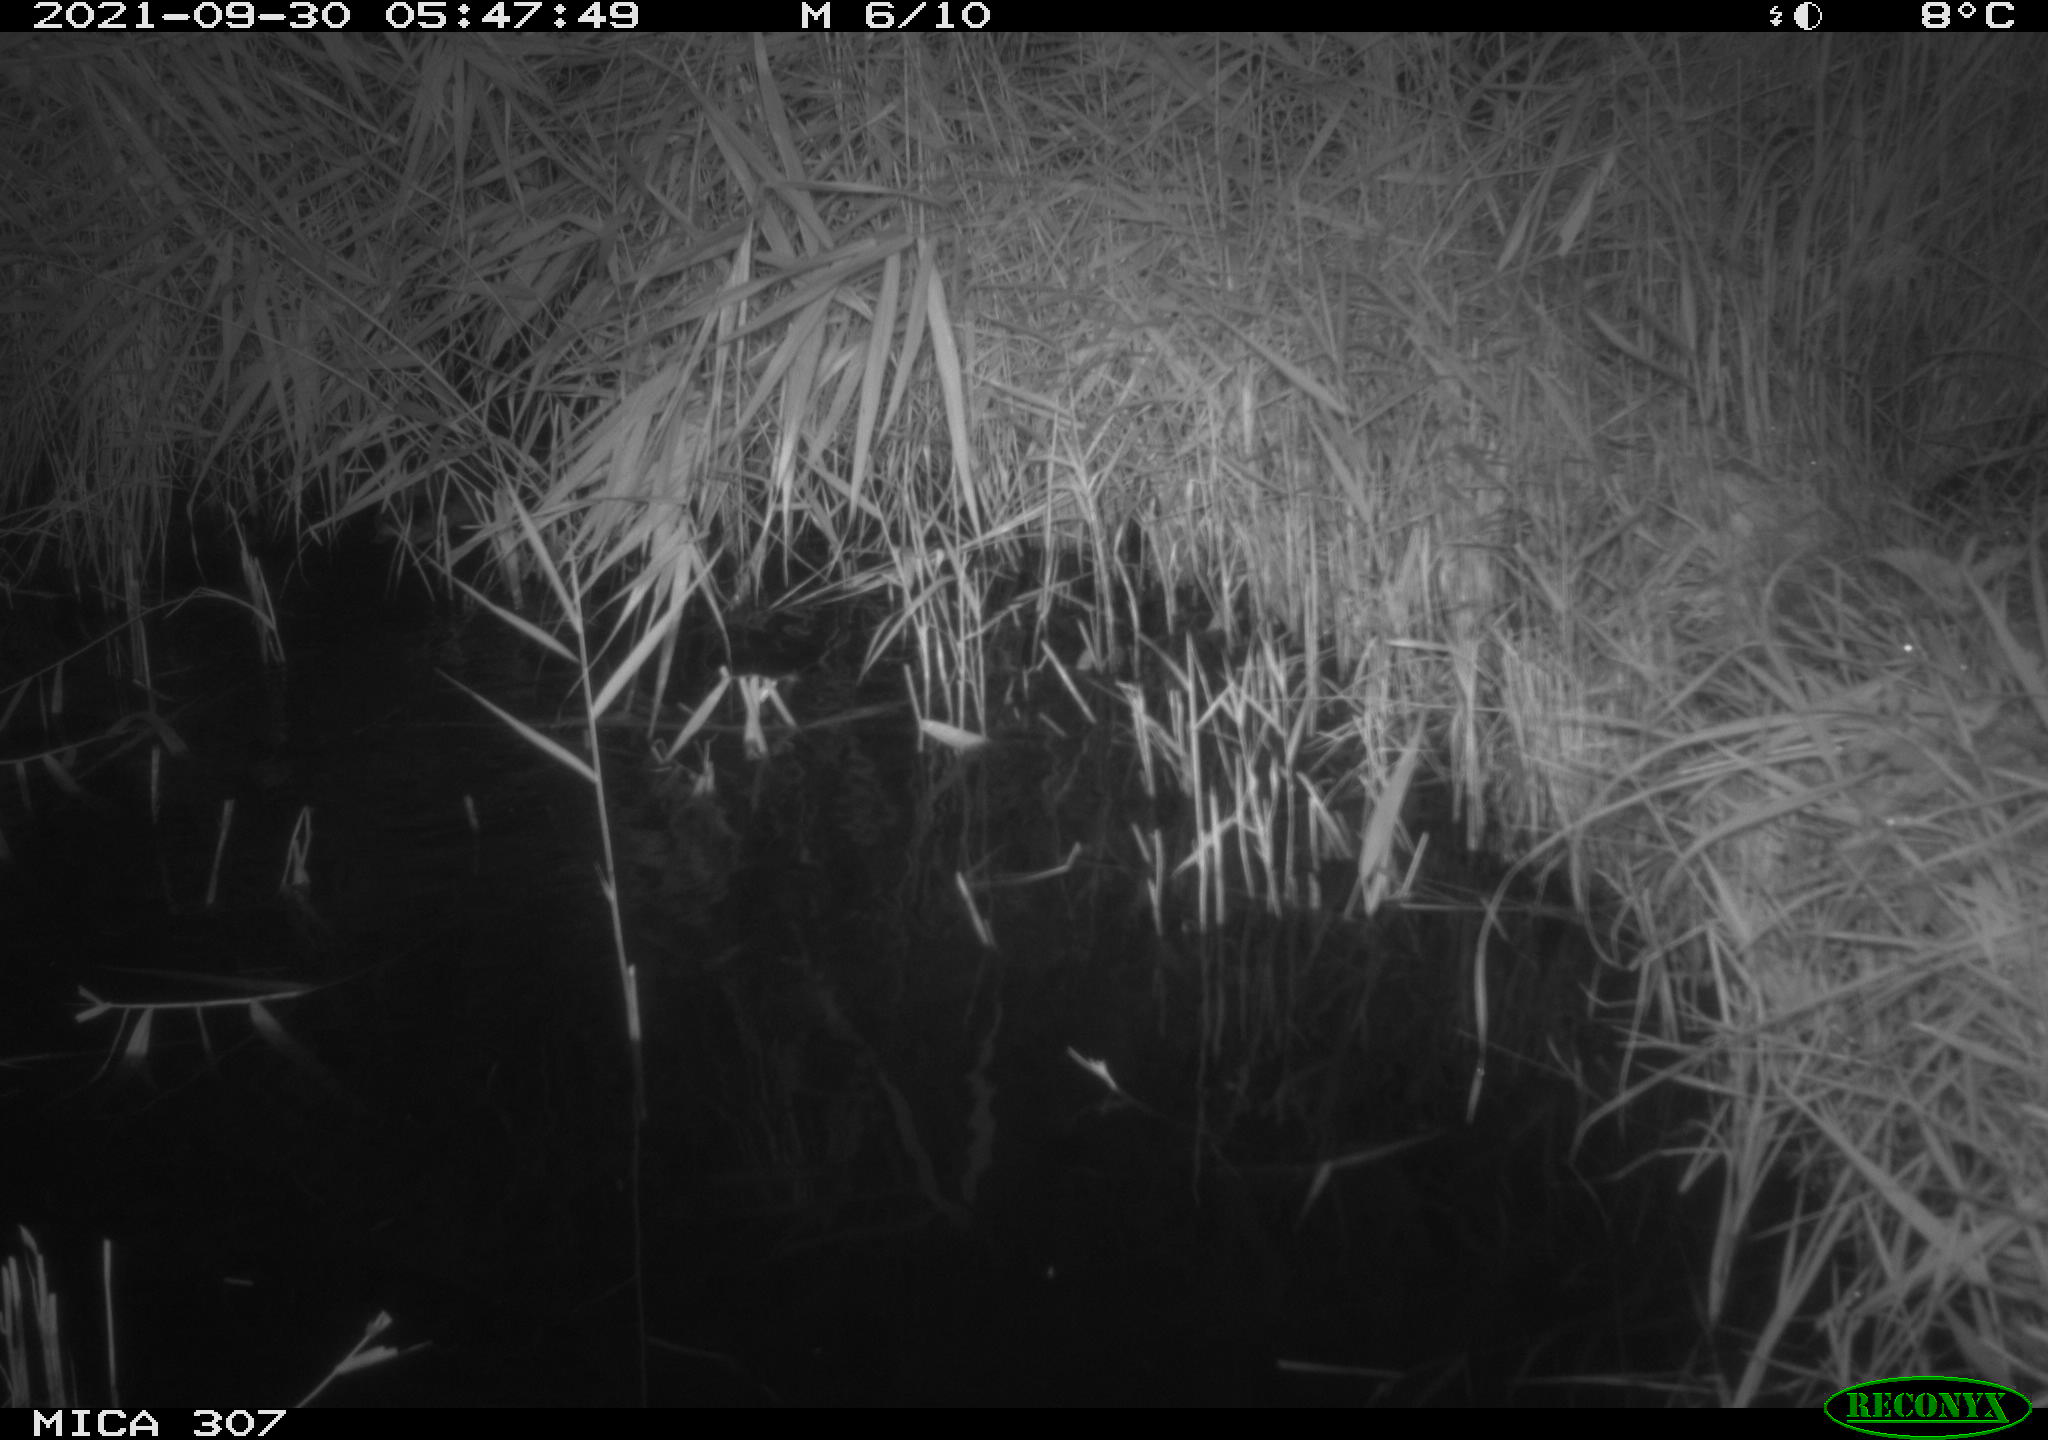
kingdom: Animalia
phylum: Chordata
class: Aves
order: Anseriformes
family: Anatidae
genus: Anas
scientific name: Anas platyrhynchos
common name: Mallard
